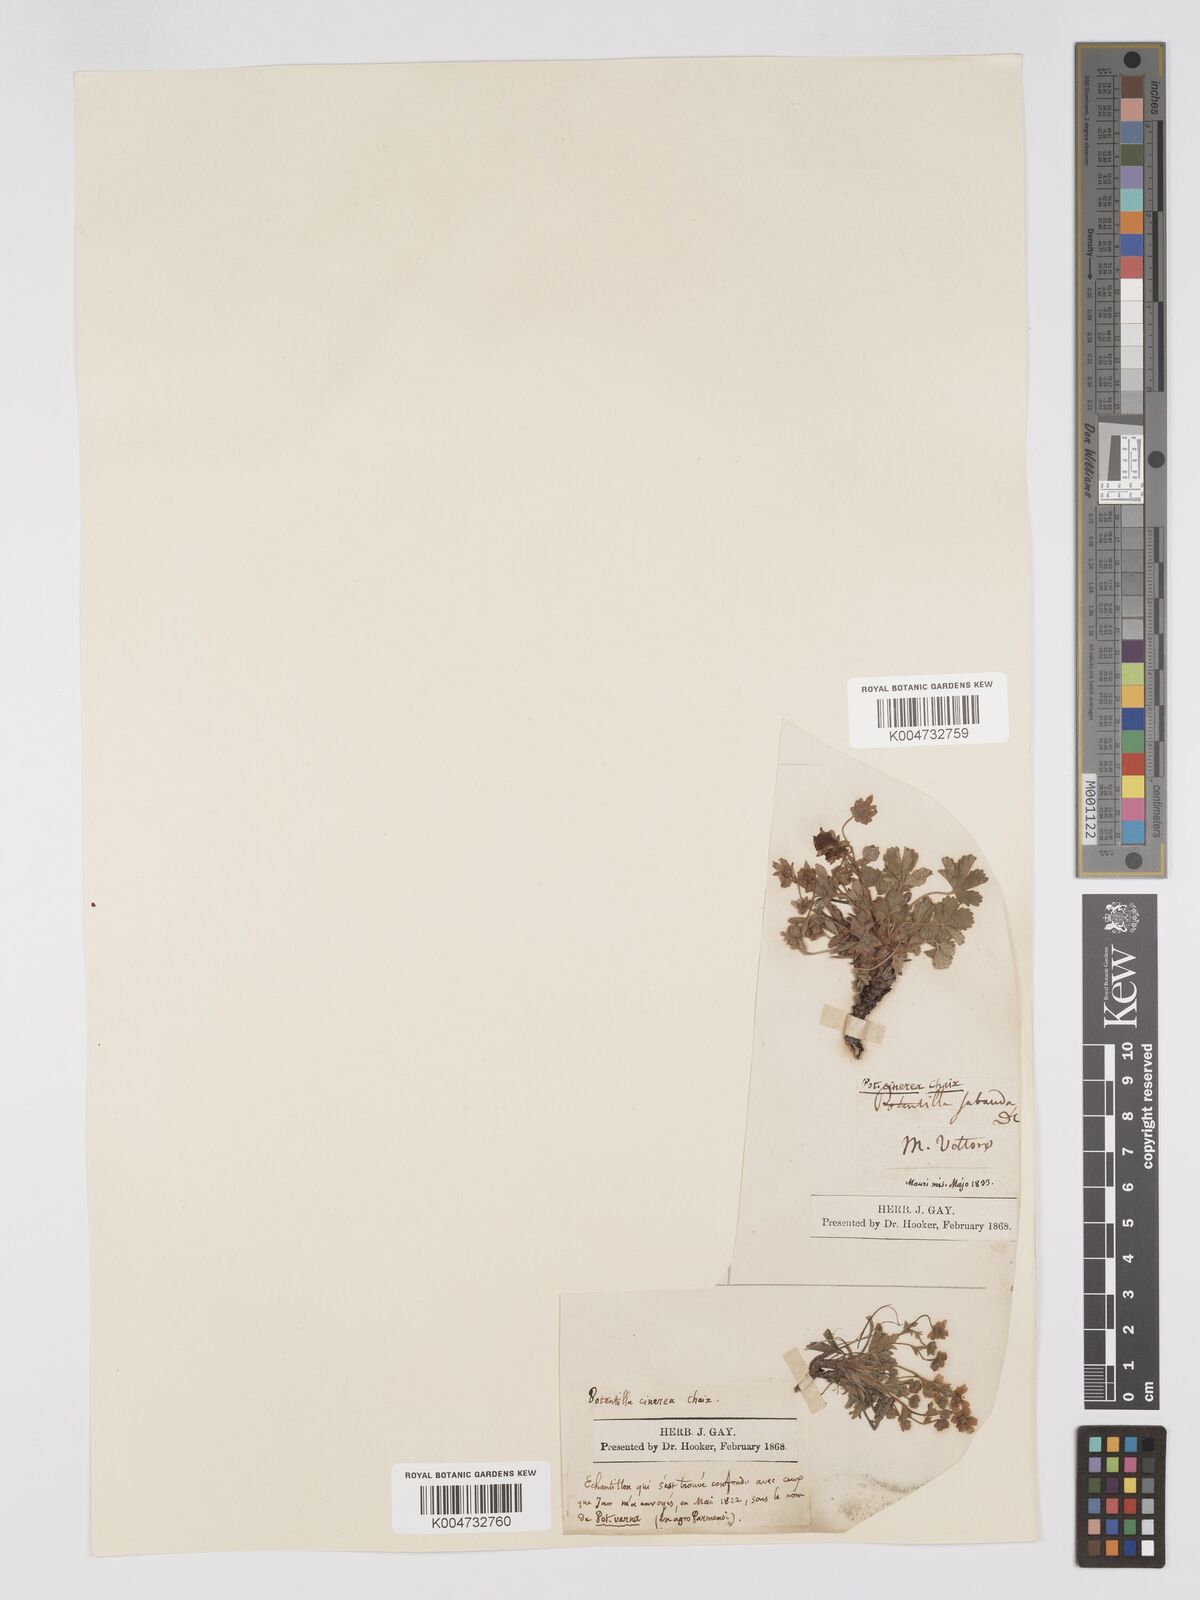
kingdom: Plantae
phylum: Tracheophyta
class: Magnoliopsida
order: Rosales
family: Rosaceae
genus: Potentilla
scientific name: Potentilla
